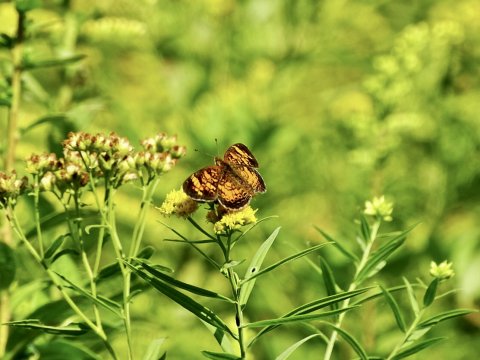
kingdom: Animalia
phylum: Arthropoda
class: Insecta
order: Lepidoptera
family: Nymphalidae
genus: Phyciodes
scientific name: Phyciodes tharos
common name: Pearl Crescent
